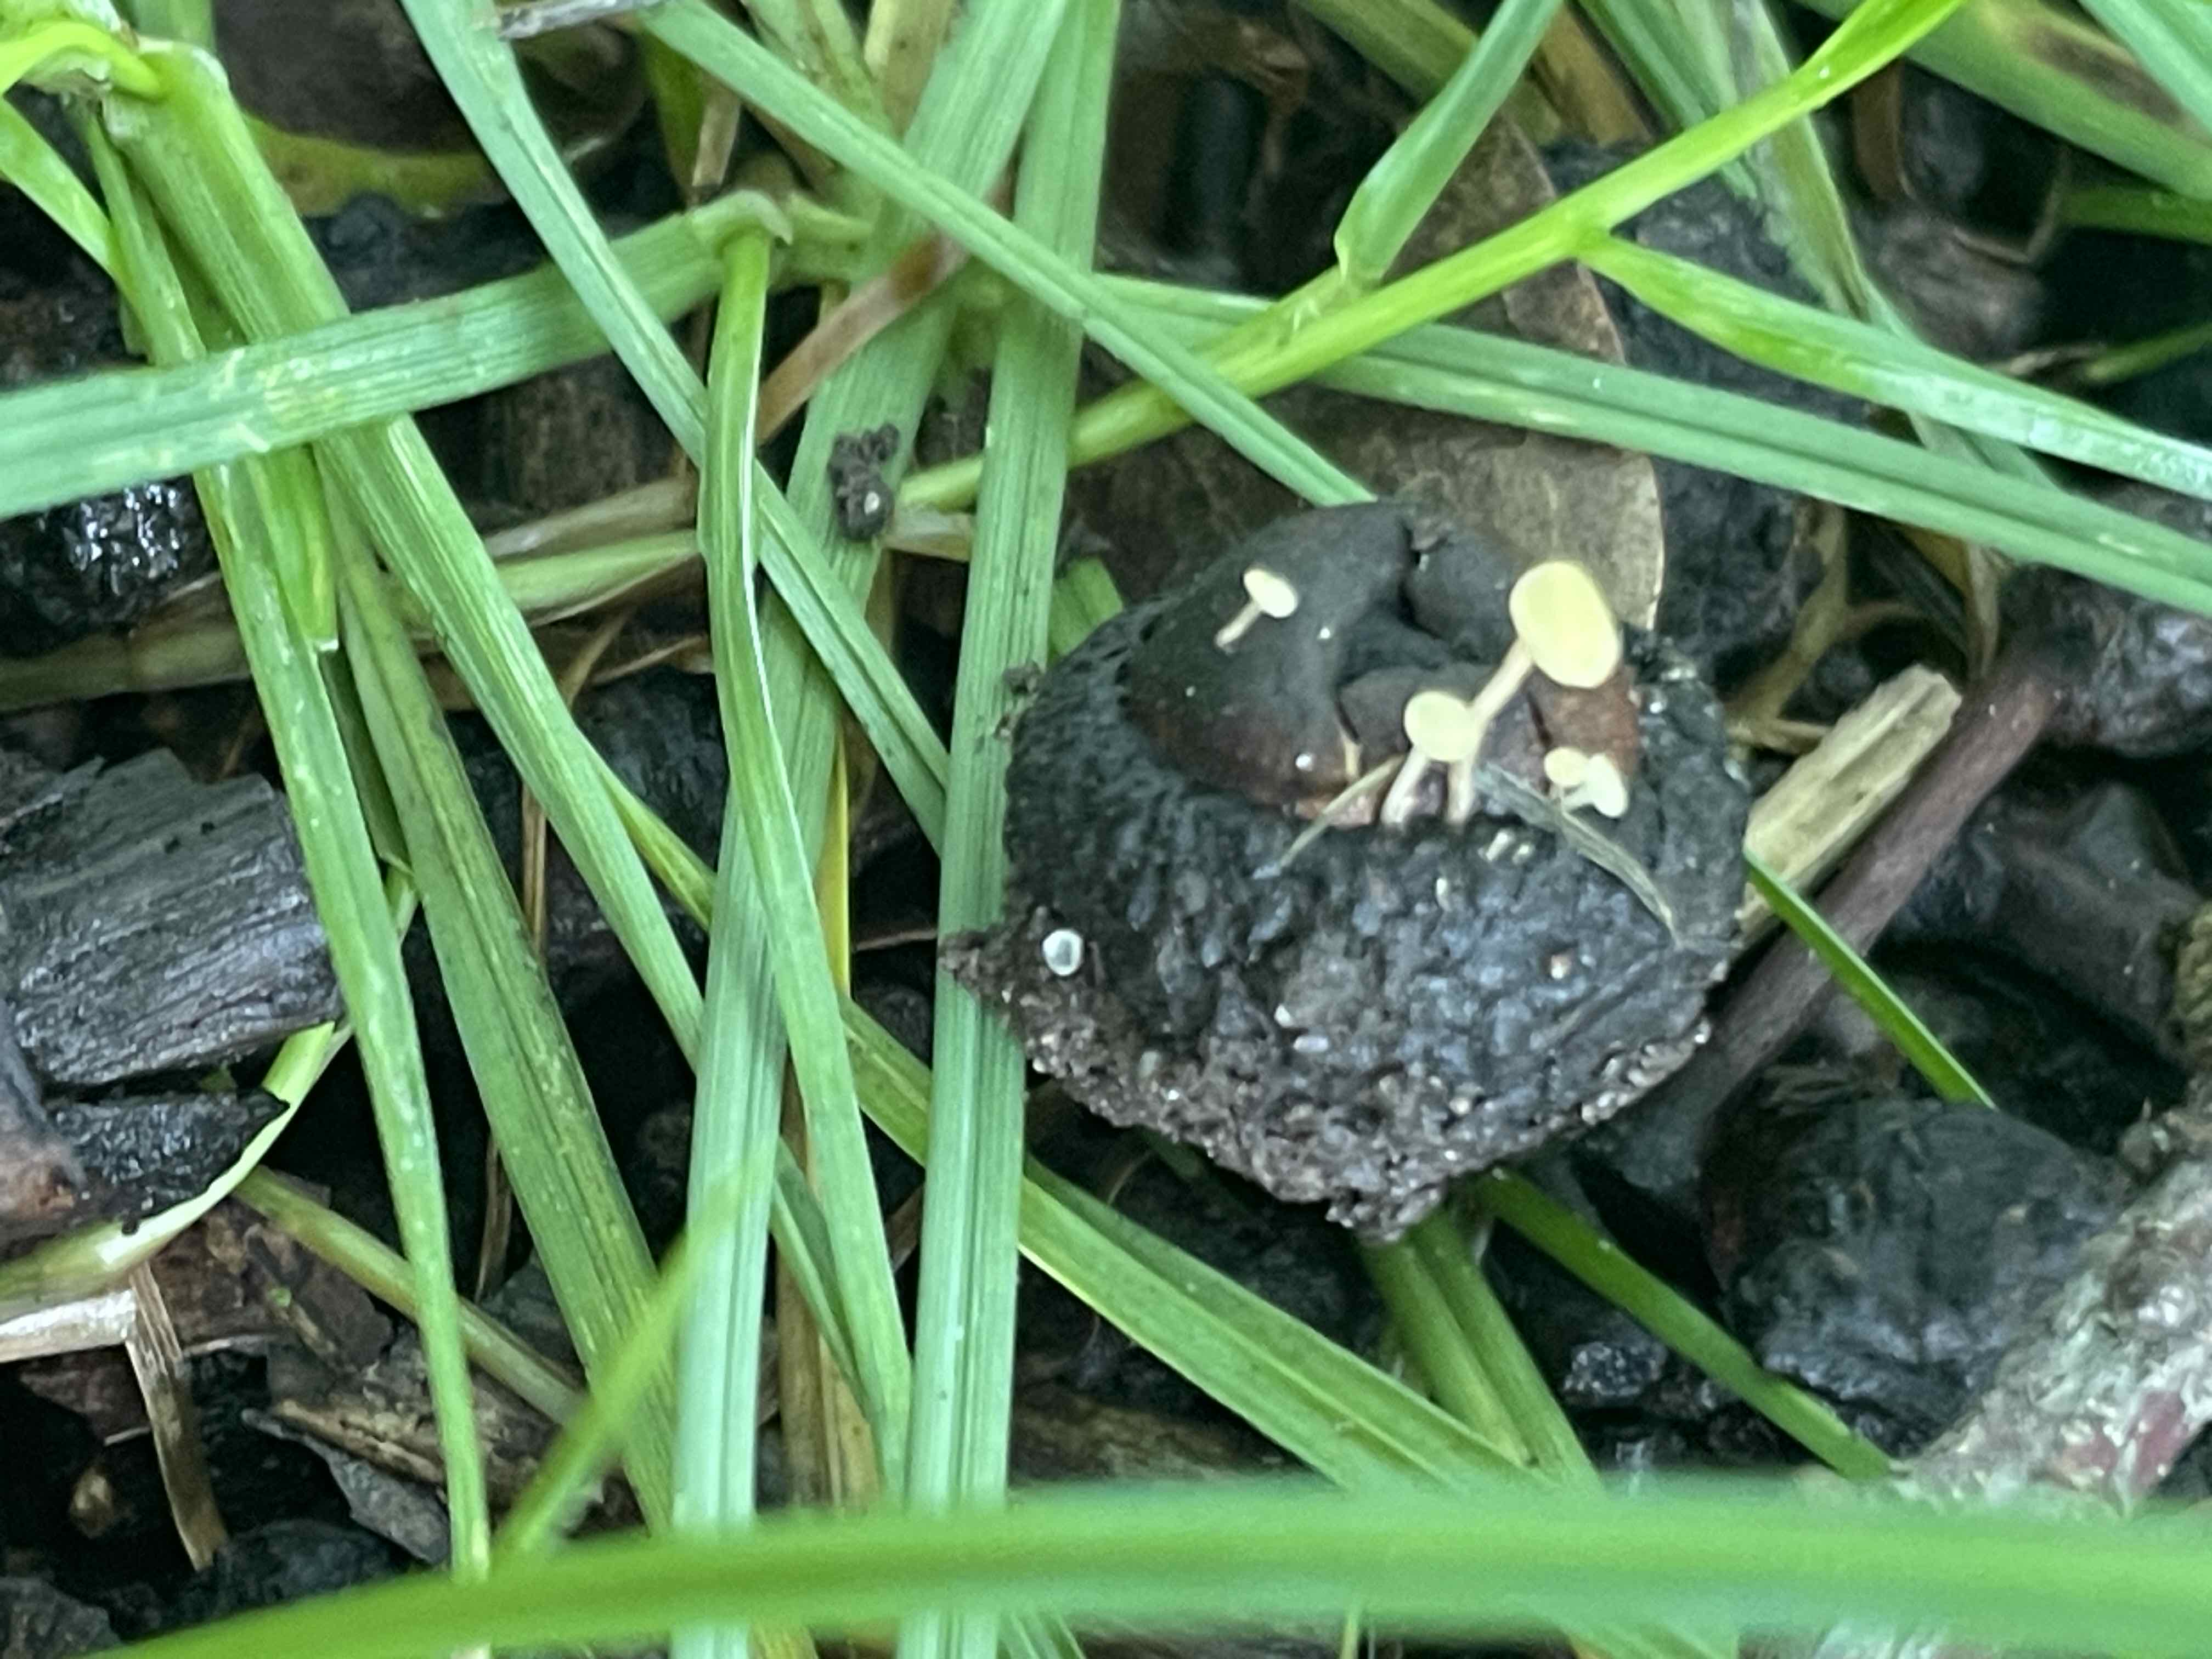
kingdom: Fungi
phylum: Ascomycota
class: Leotiomycetes
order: Helotiales
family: Helotiaceae
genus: Hymenoscyphus
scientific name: Hymenoscyphus fructigenus
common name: frugt-stilkskive
